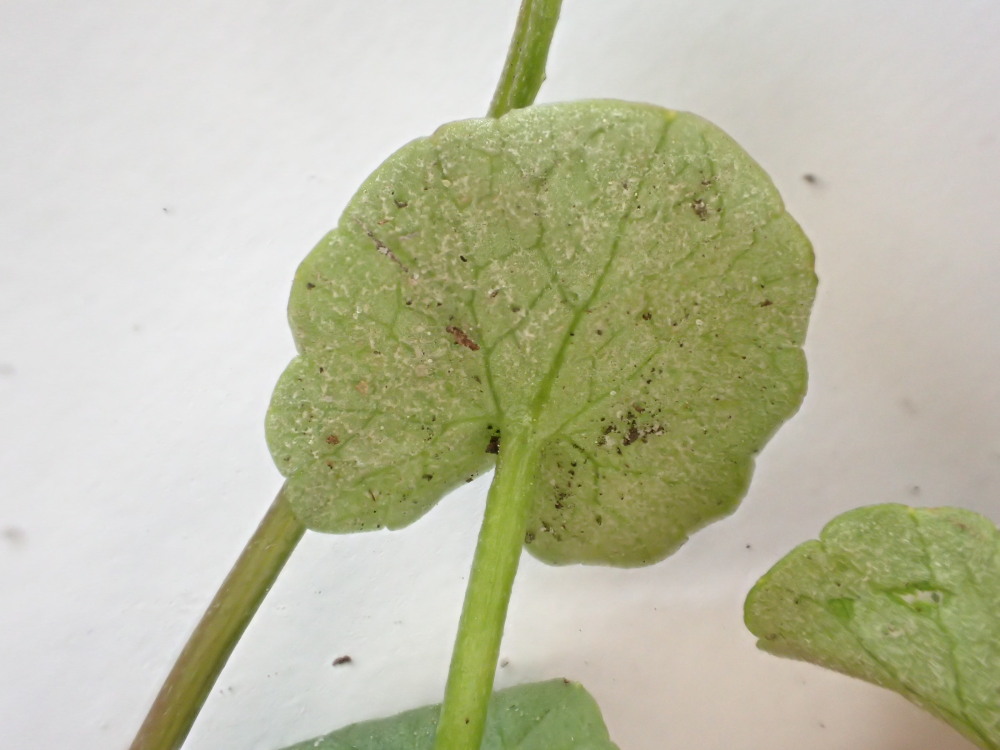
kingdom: Chromista
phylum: Oomycota
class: Peronosporea
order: Peronosporales
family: Peronosporaceae
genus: Peronospora
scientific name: Peronospora ficariae
